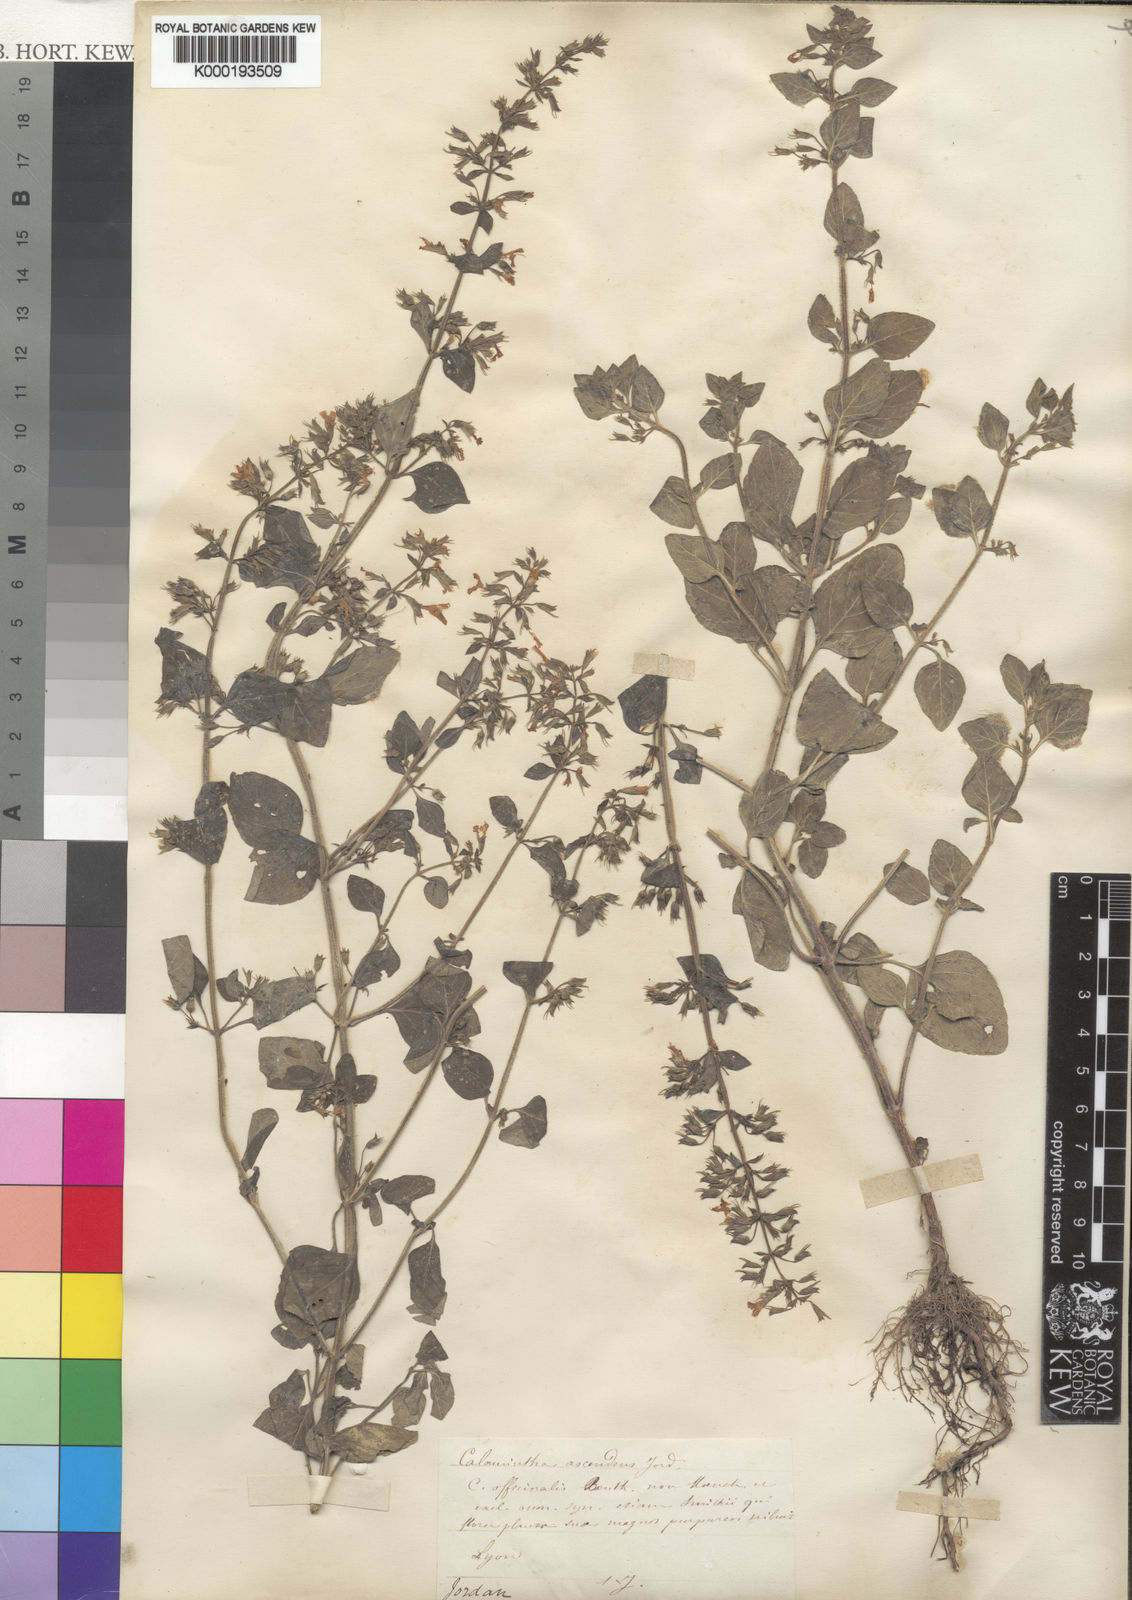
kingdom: Plantae
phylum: Tracheophyta
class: Magnoliopsida
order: Lamiales
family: Lamiaceae
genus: Clinopodium
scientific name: Clinopodium menthifolium
